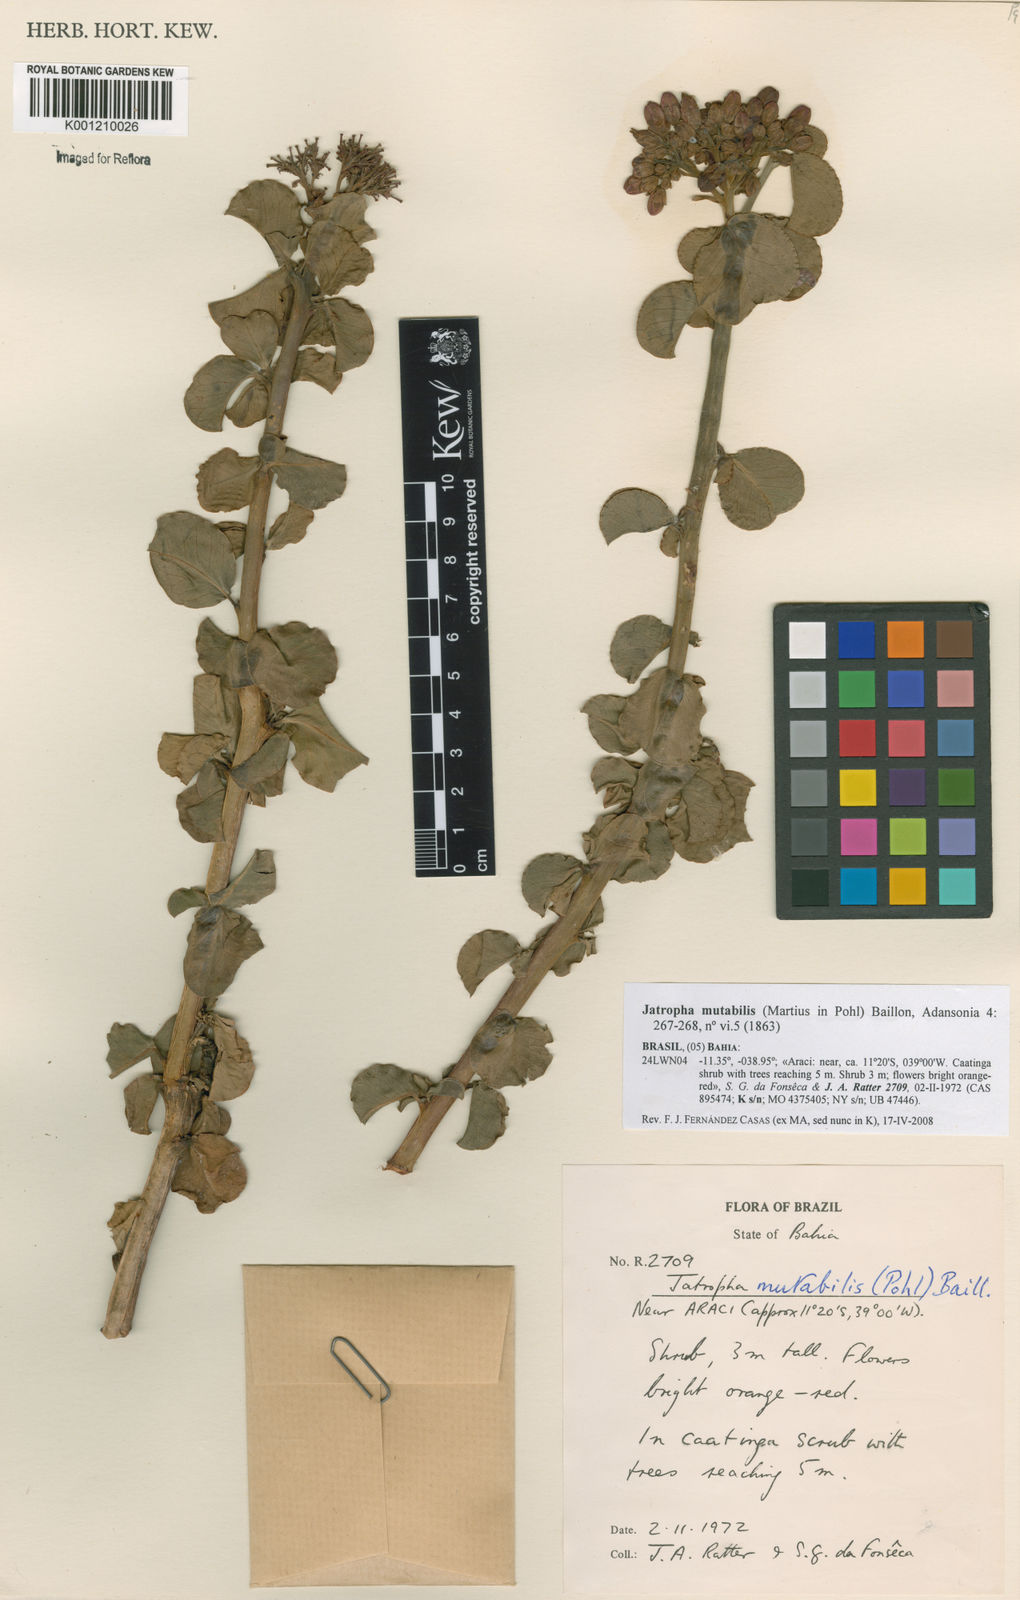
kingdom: Plantae
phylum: Tracheophyta
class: Magnoliopsida
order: Malpighiales
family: Euphorbiaceae
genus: Jatropha
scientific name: Jatropha mutabilis
